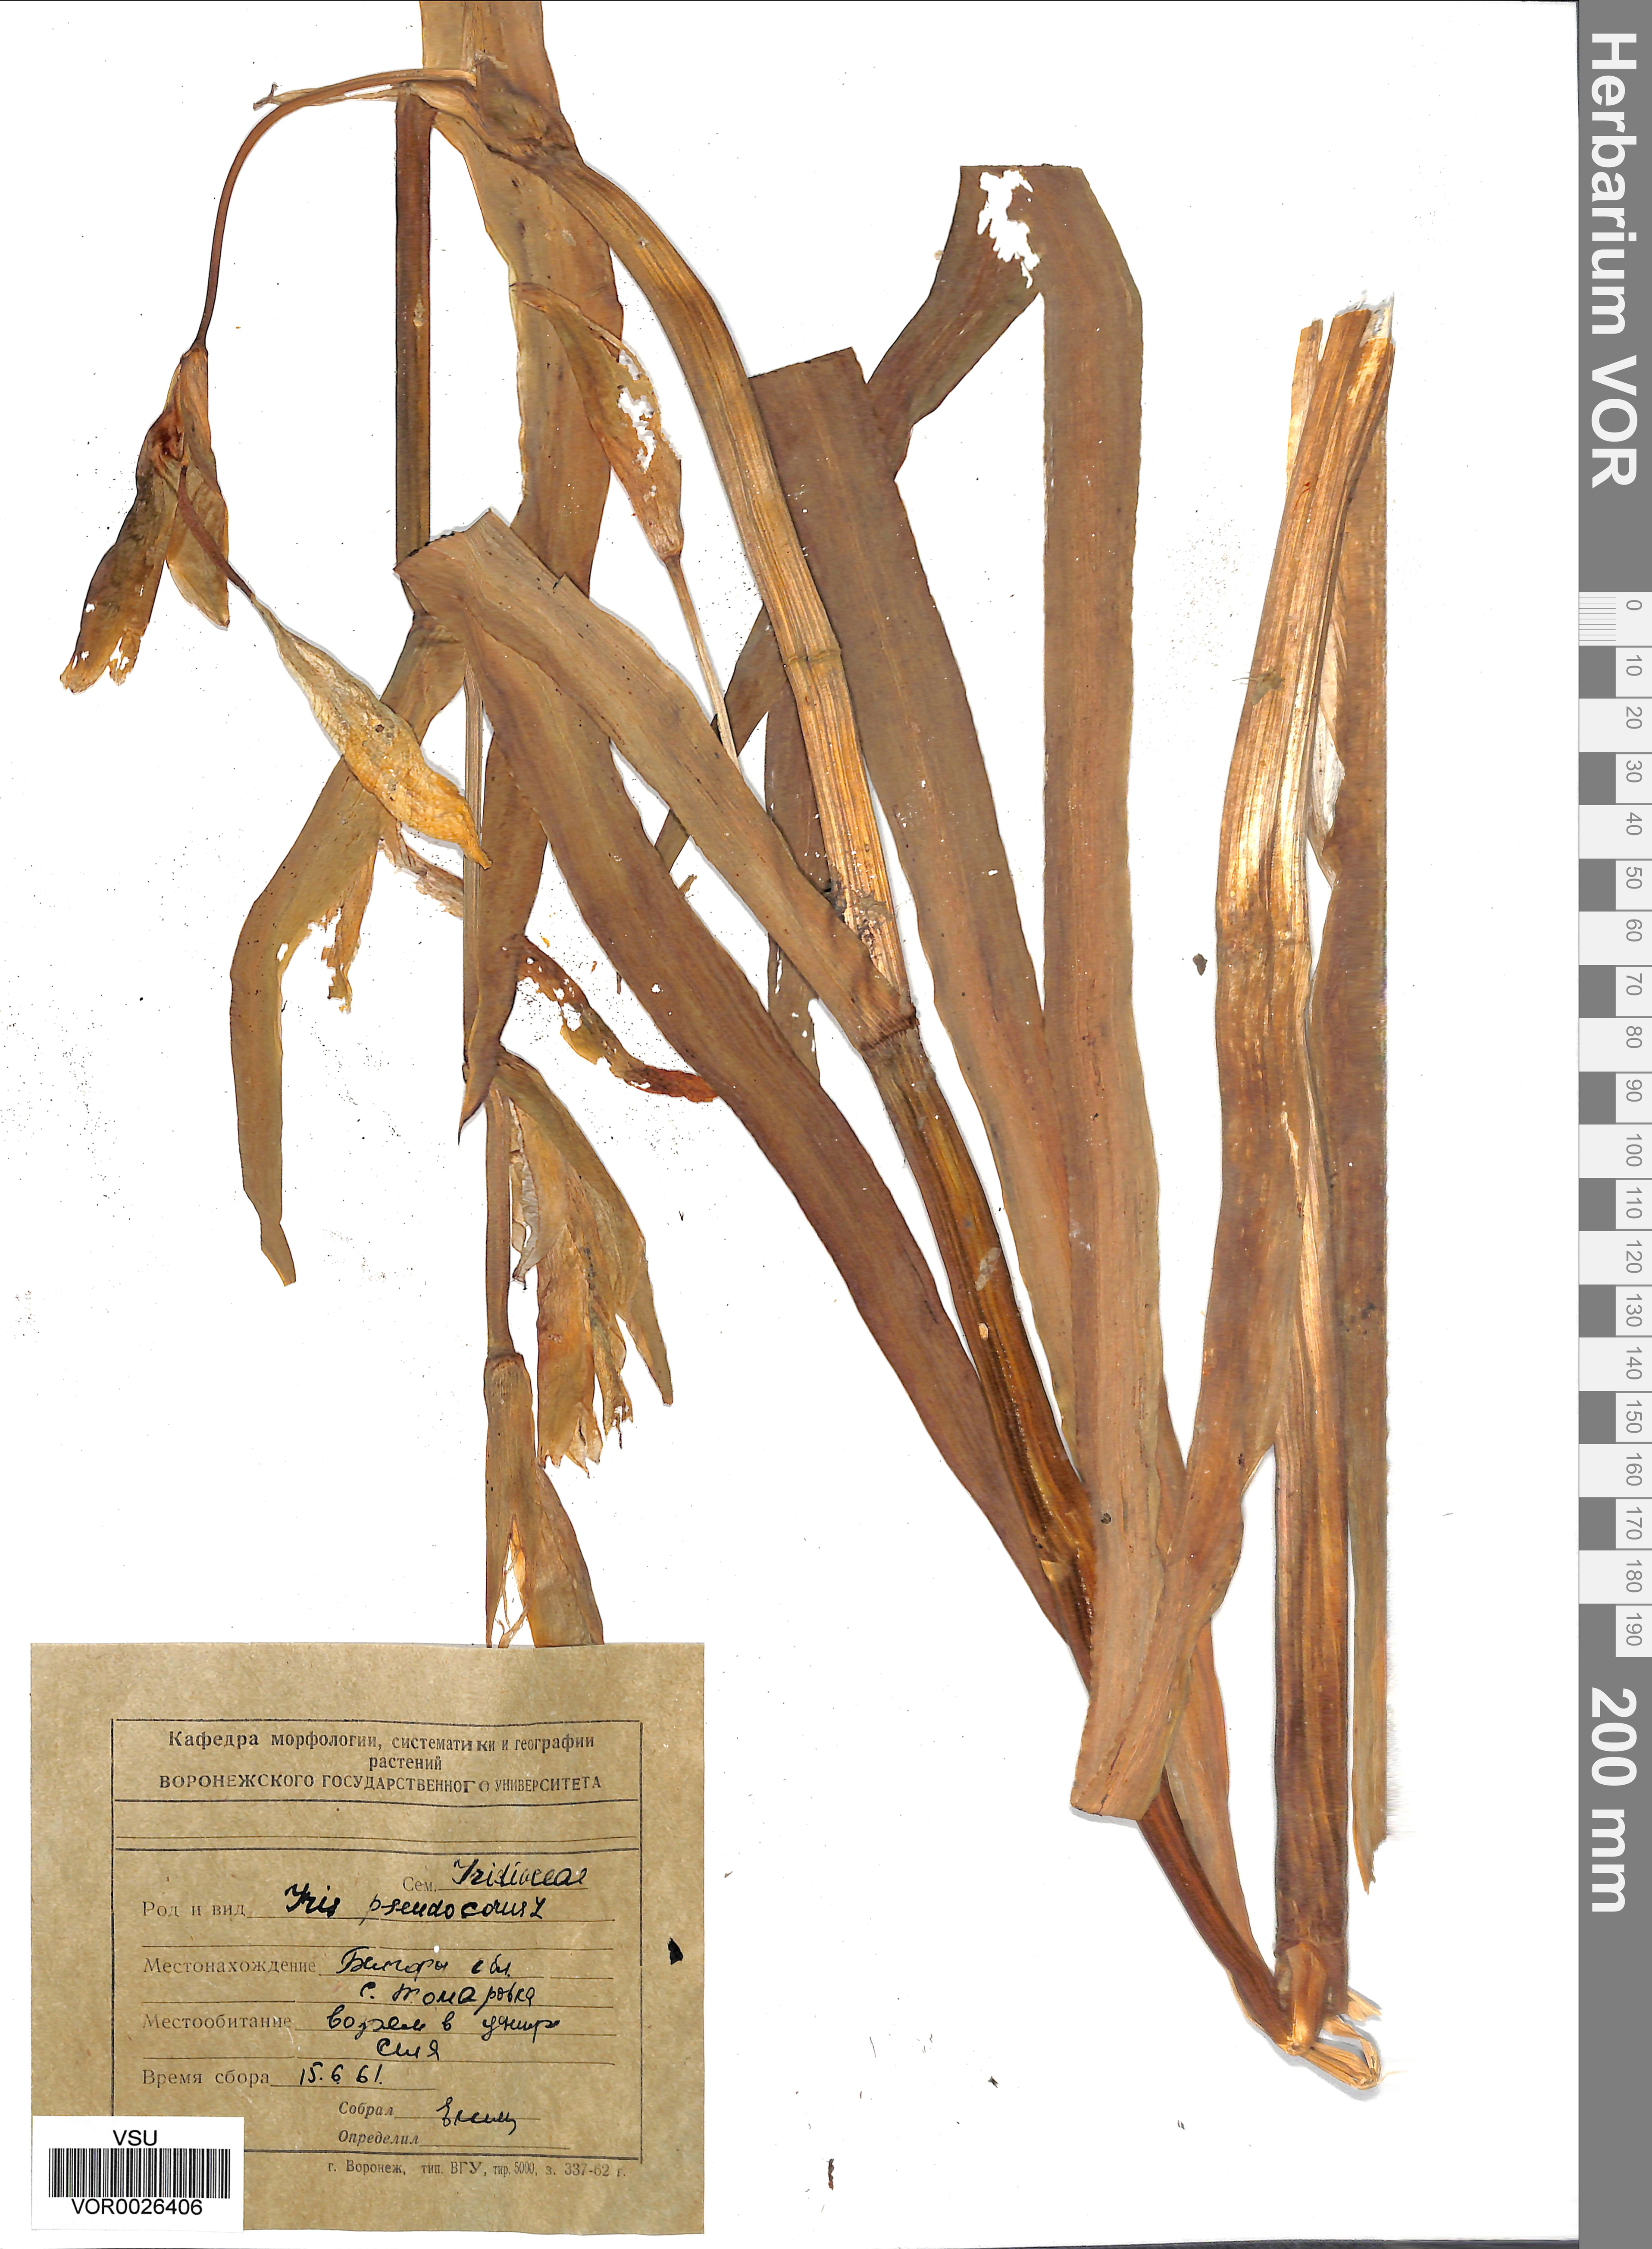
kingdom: Plantae
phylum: Tracheophyta
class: Liliopsida
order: Asparagales
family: Iridaceae
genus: Iris
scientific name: Iris pseudacorus
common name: Yellow flag
